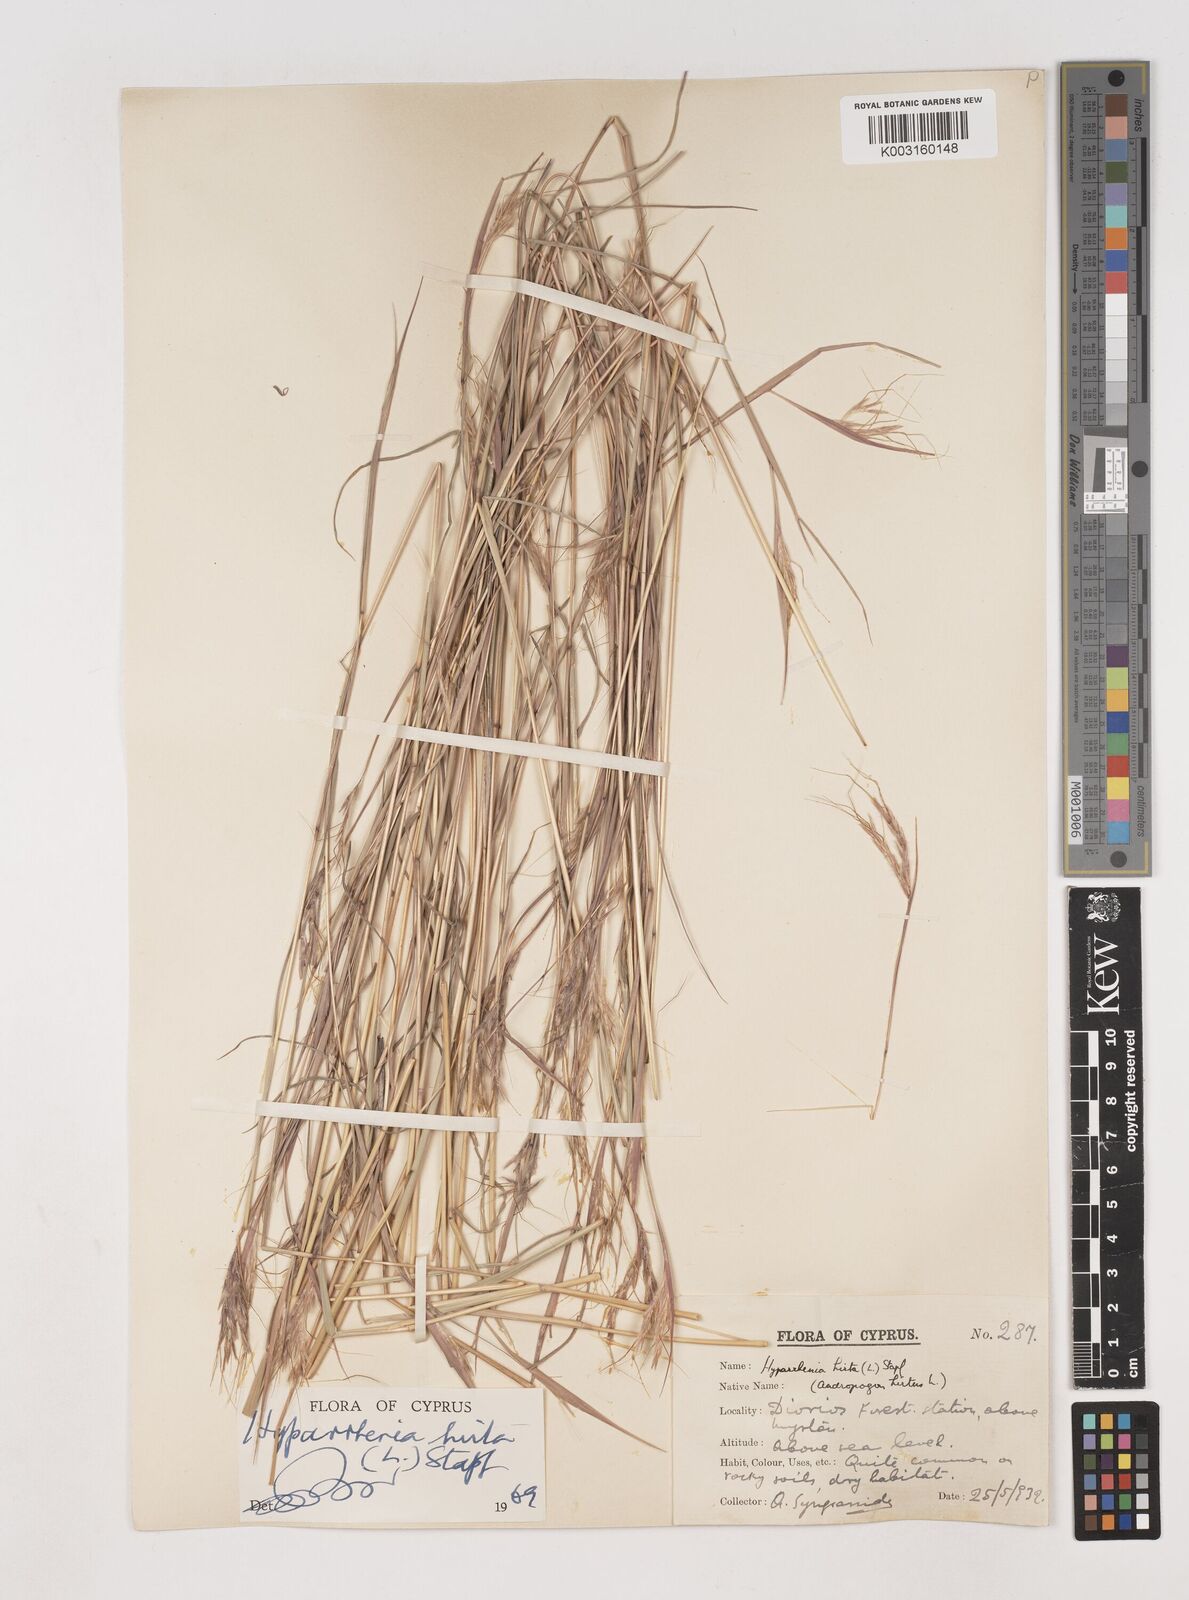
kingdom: Plantae
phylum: Tracheophyta
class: Liliopsida
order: Poales
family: Poaceae
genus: Hyparrhenia
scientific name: Hyparrhenia hirta
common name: Thatching grass
